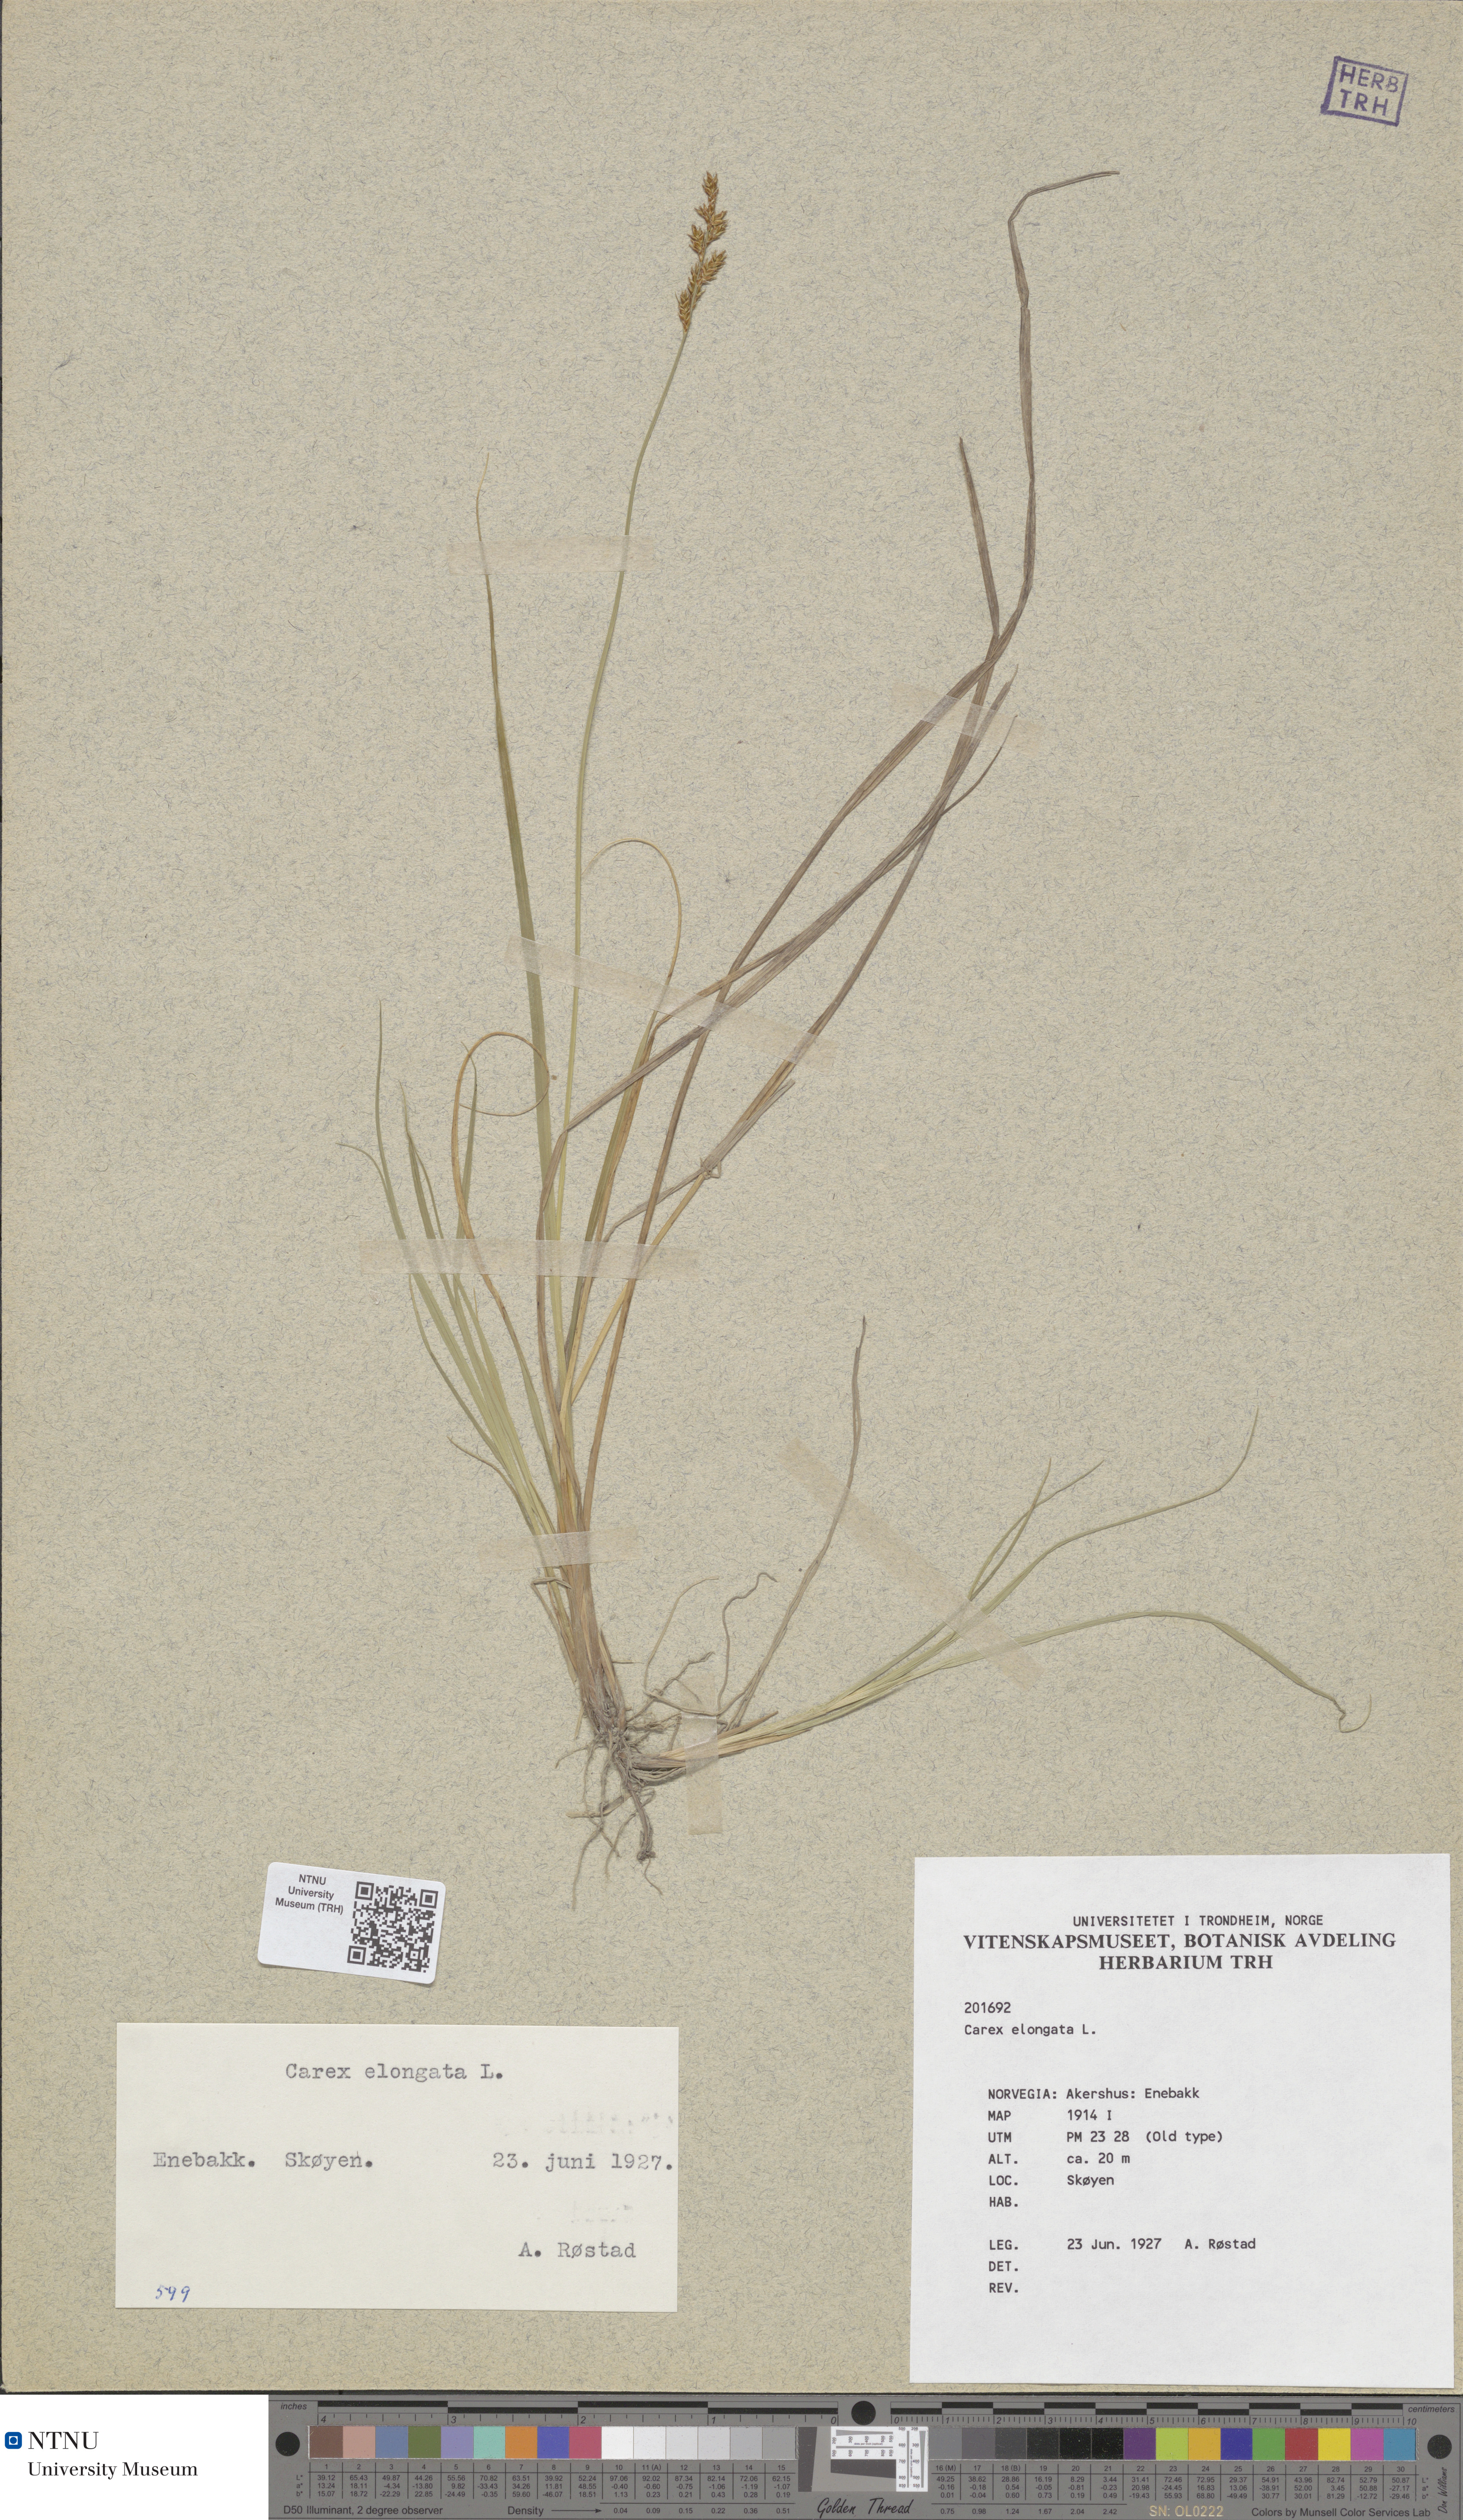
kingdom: Plantae
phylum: Tracheophyta
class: Liliopsida
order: Poales
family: Cyperaceae
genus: Carex
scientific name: Carex elongata
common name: Elongated sedge
